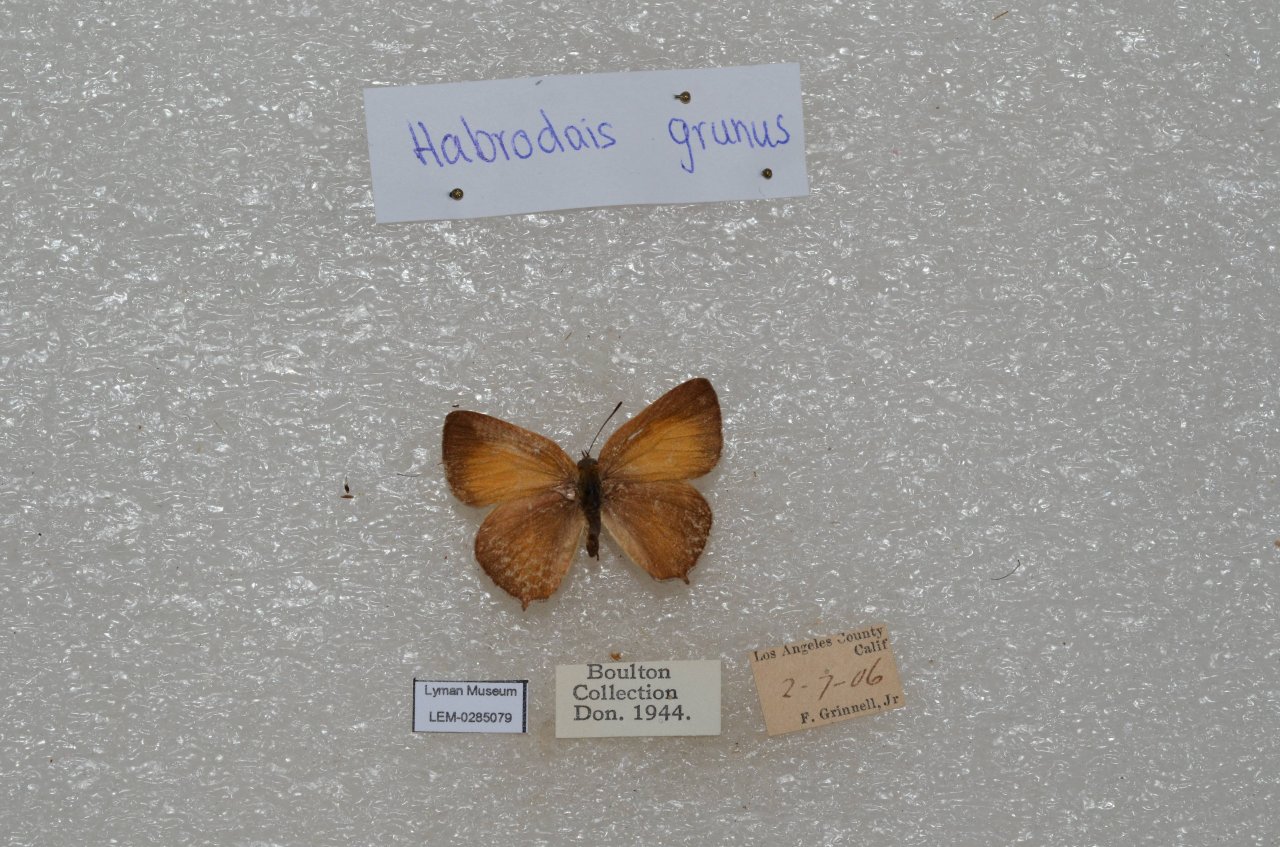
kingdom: Animalia
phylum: Arthropoda
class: Insecta
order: Lepidoptera
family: Lycaenidae
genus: Habrodais
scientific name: Habrodais grunus
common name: Golden Hairstreak
